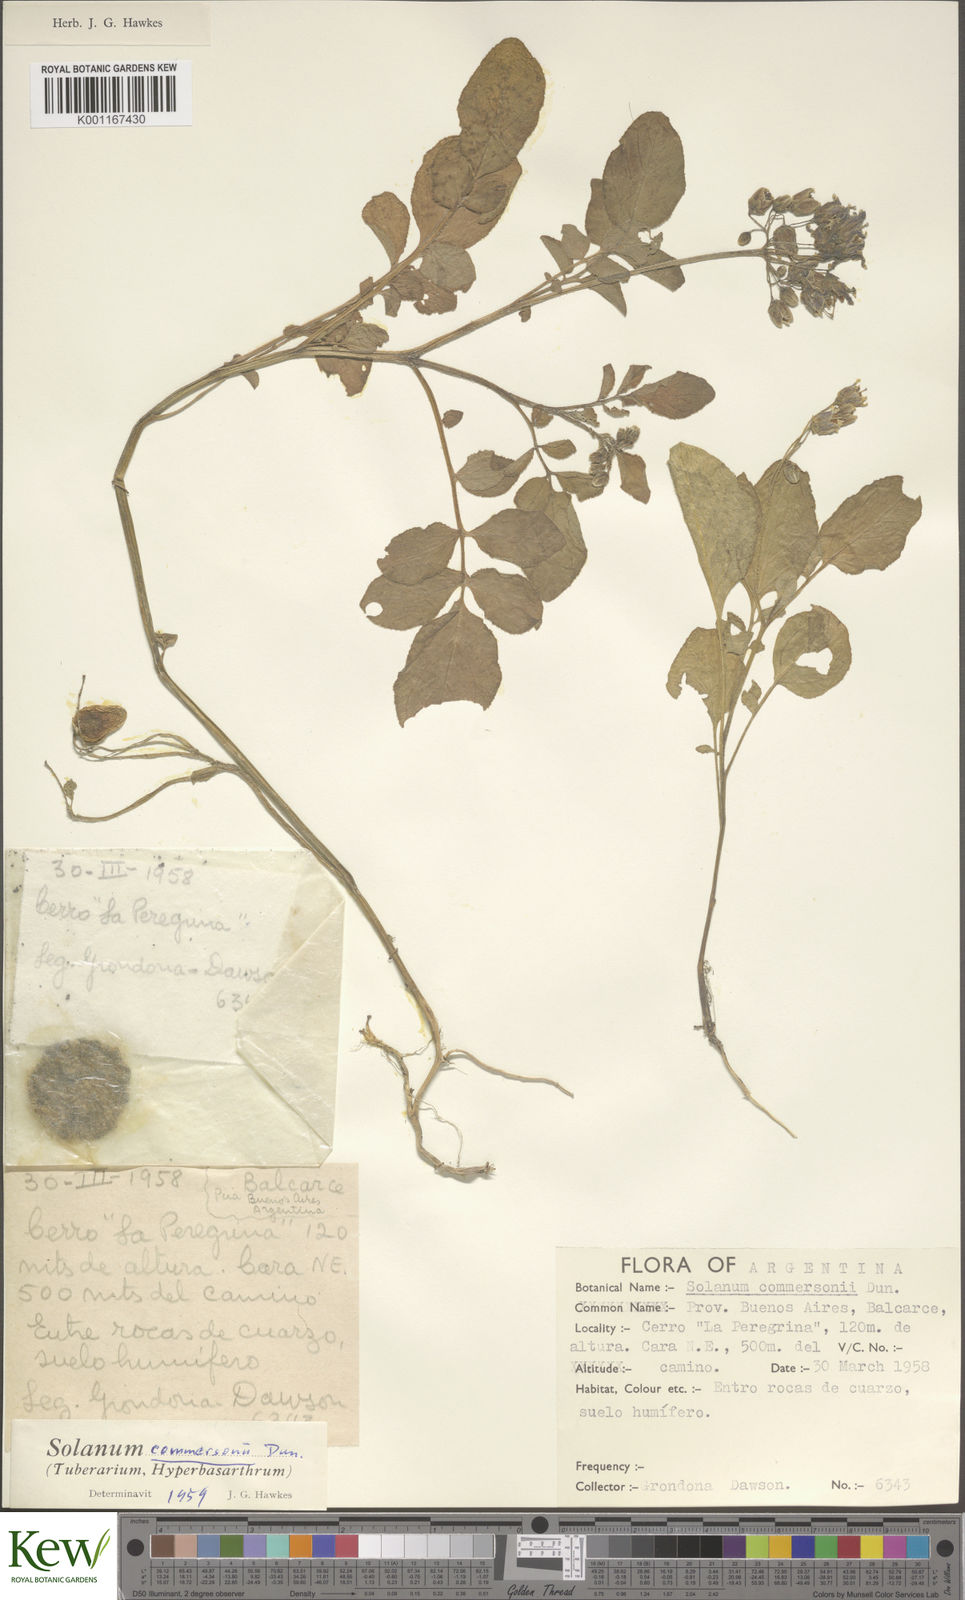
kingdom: Plantae
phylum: Tracheophyta
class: Magnoliopsida
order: Solanales
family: Solanaceae
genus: Solanum
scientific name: Solanum commersonii
